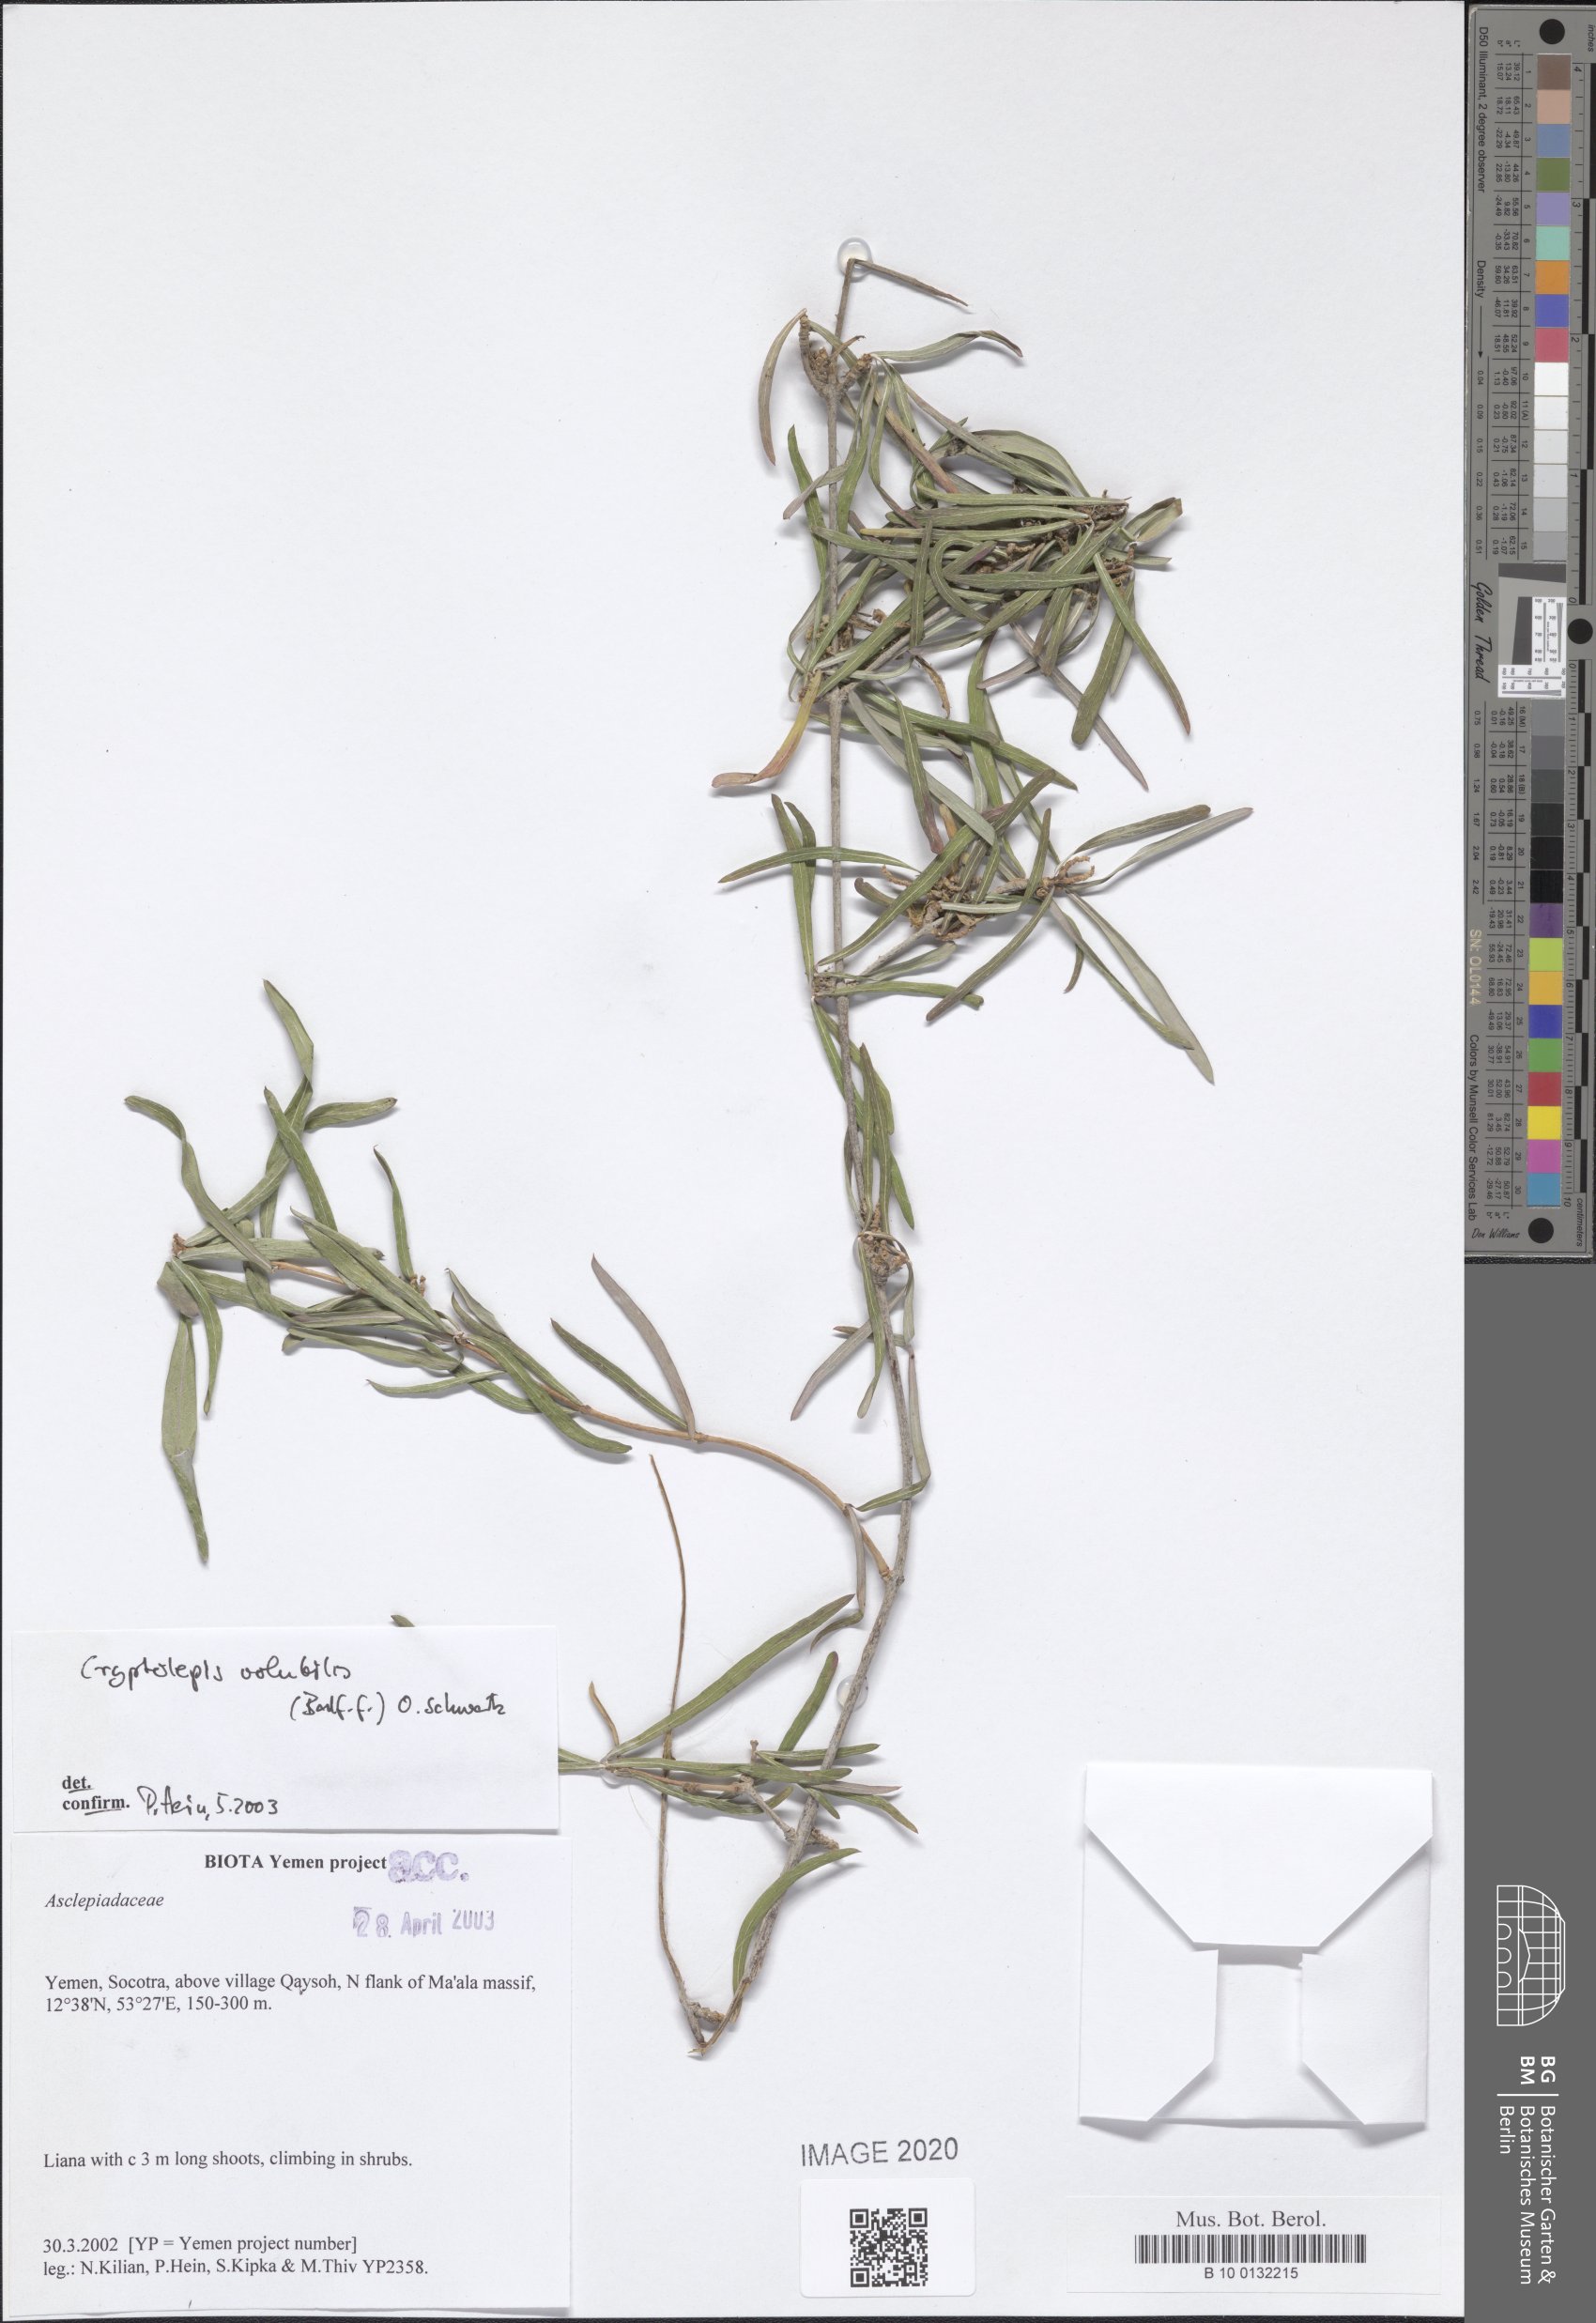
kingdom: Plantae
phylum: Tracheophyta
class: Magnoliopsida
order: Gentianales
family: Apocynaceae
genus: Cryptolepis
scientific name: Cryptolepis volubilis
